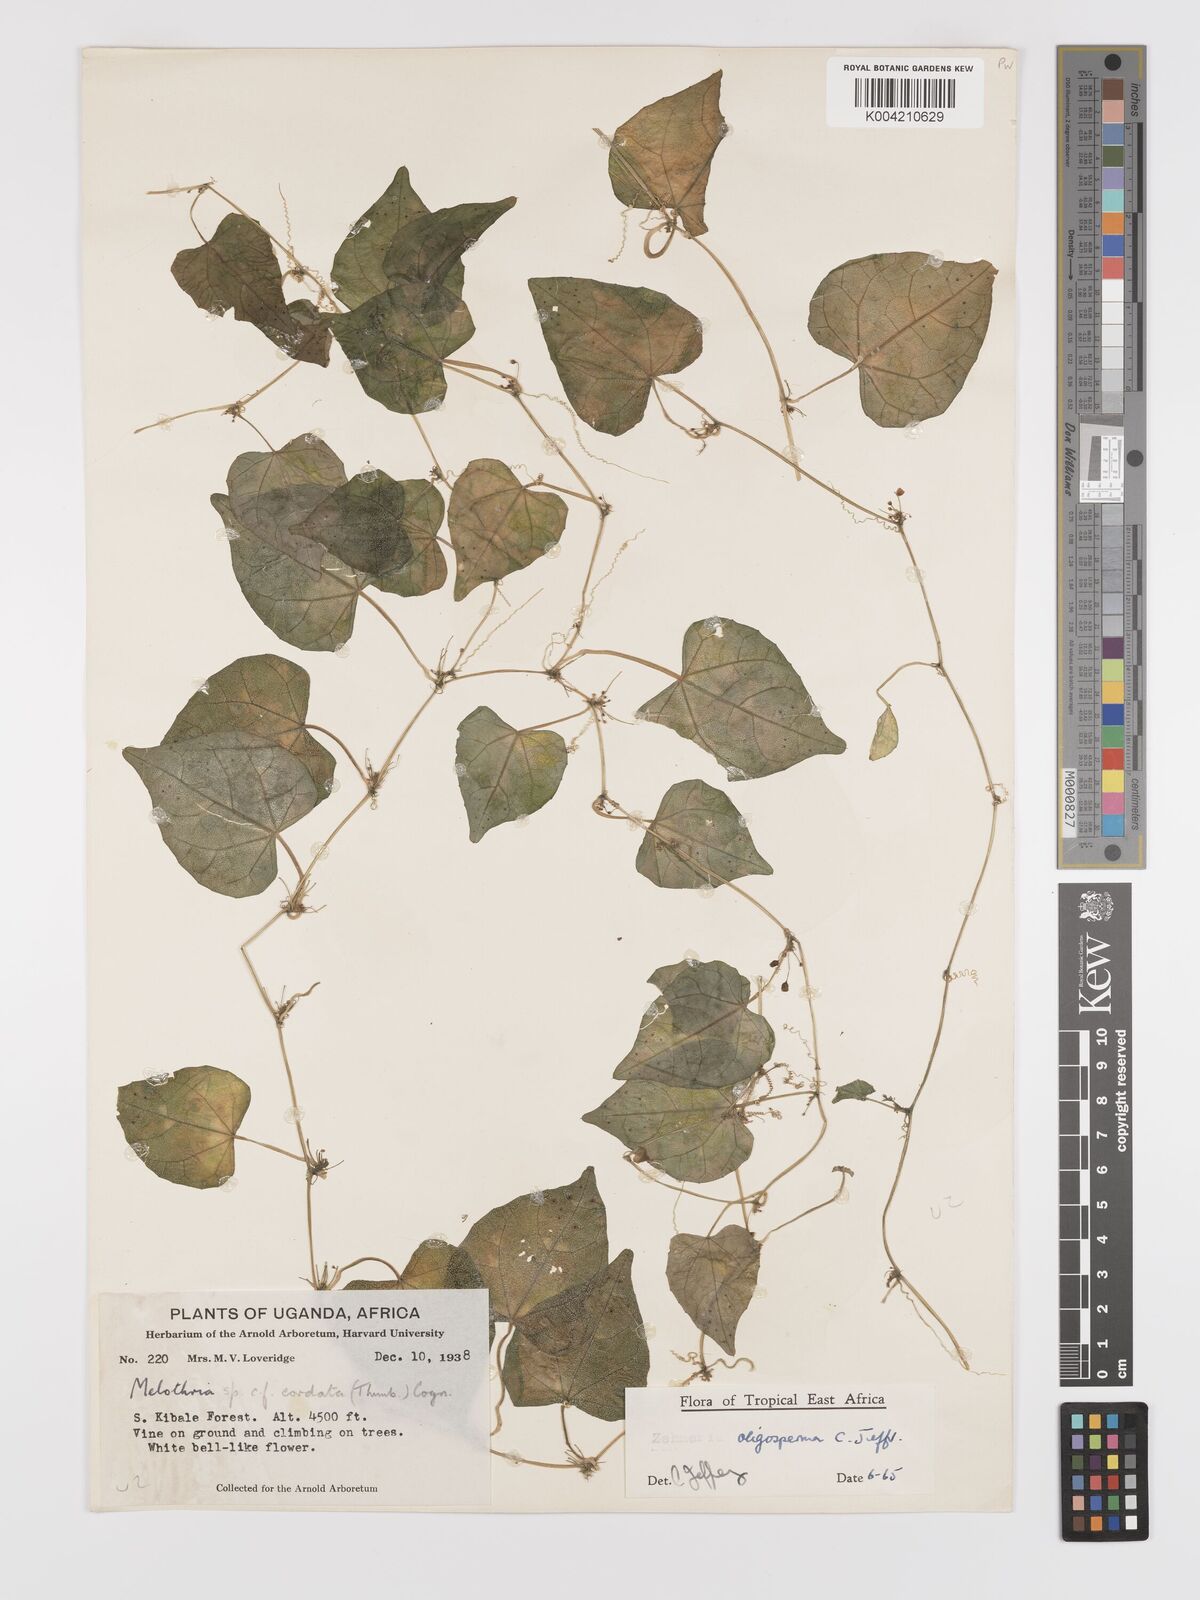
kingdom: Plantae
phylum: Tracheophyta
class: Magnoliopsida
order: Cucurbitales
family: Cucurbitaceae
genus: Zehneria
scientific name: Zehneria oligosperma
